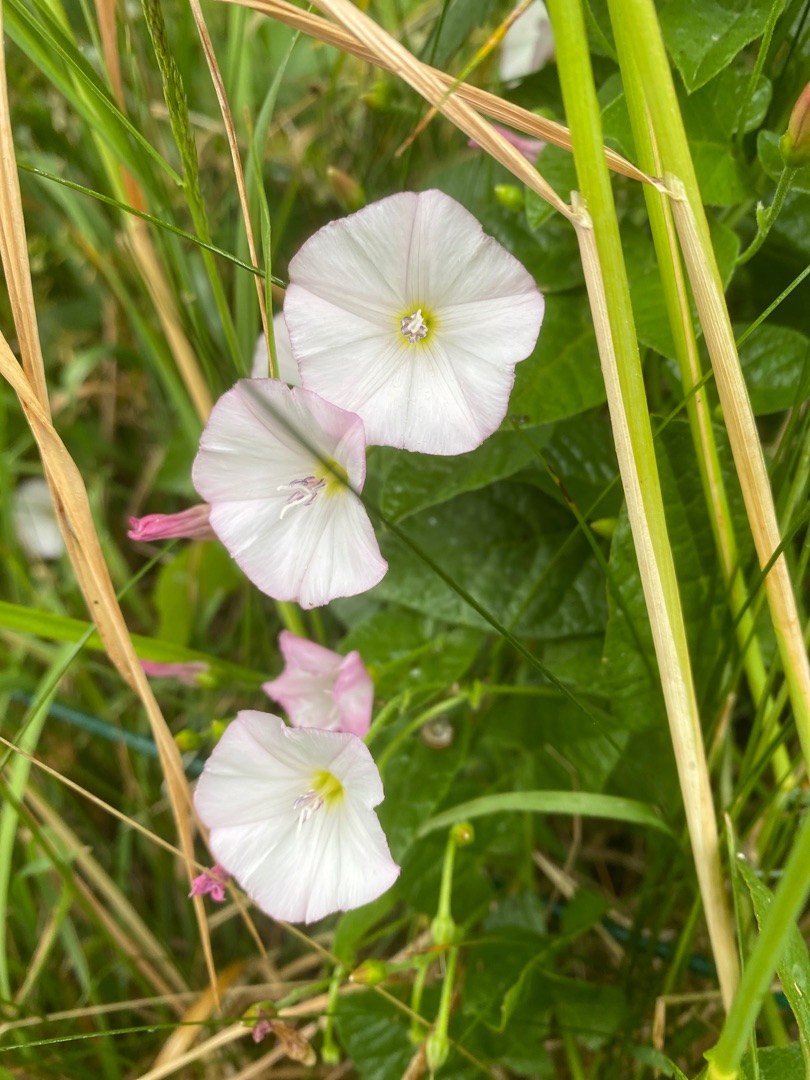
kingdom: Plantae
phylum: Tracheophyta
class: Magnoliopsida
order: Solanales
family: Convolvulaceae
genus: Convolvulus
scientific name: Convolvulus arvensis
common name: Ager-snerle
